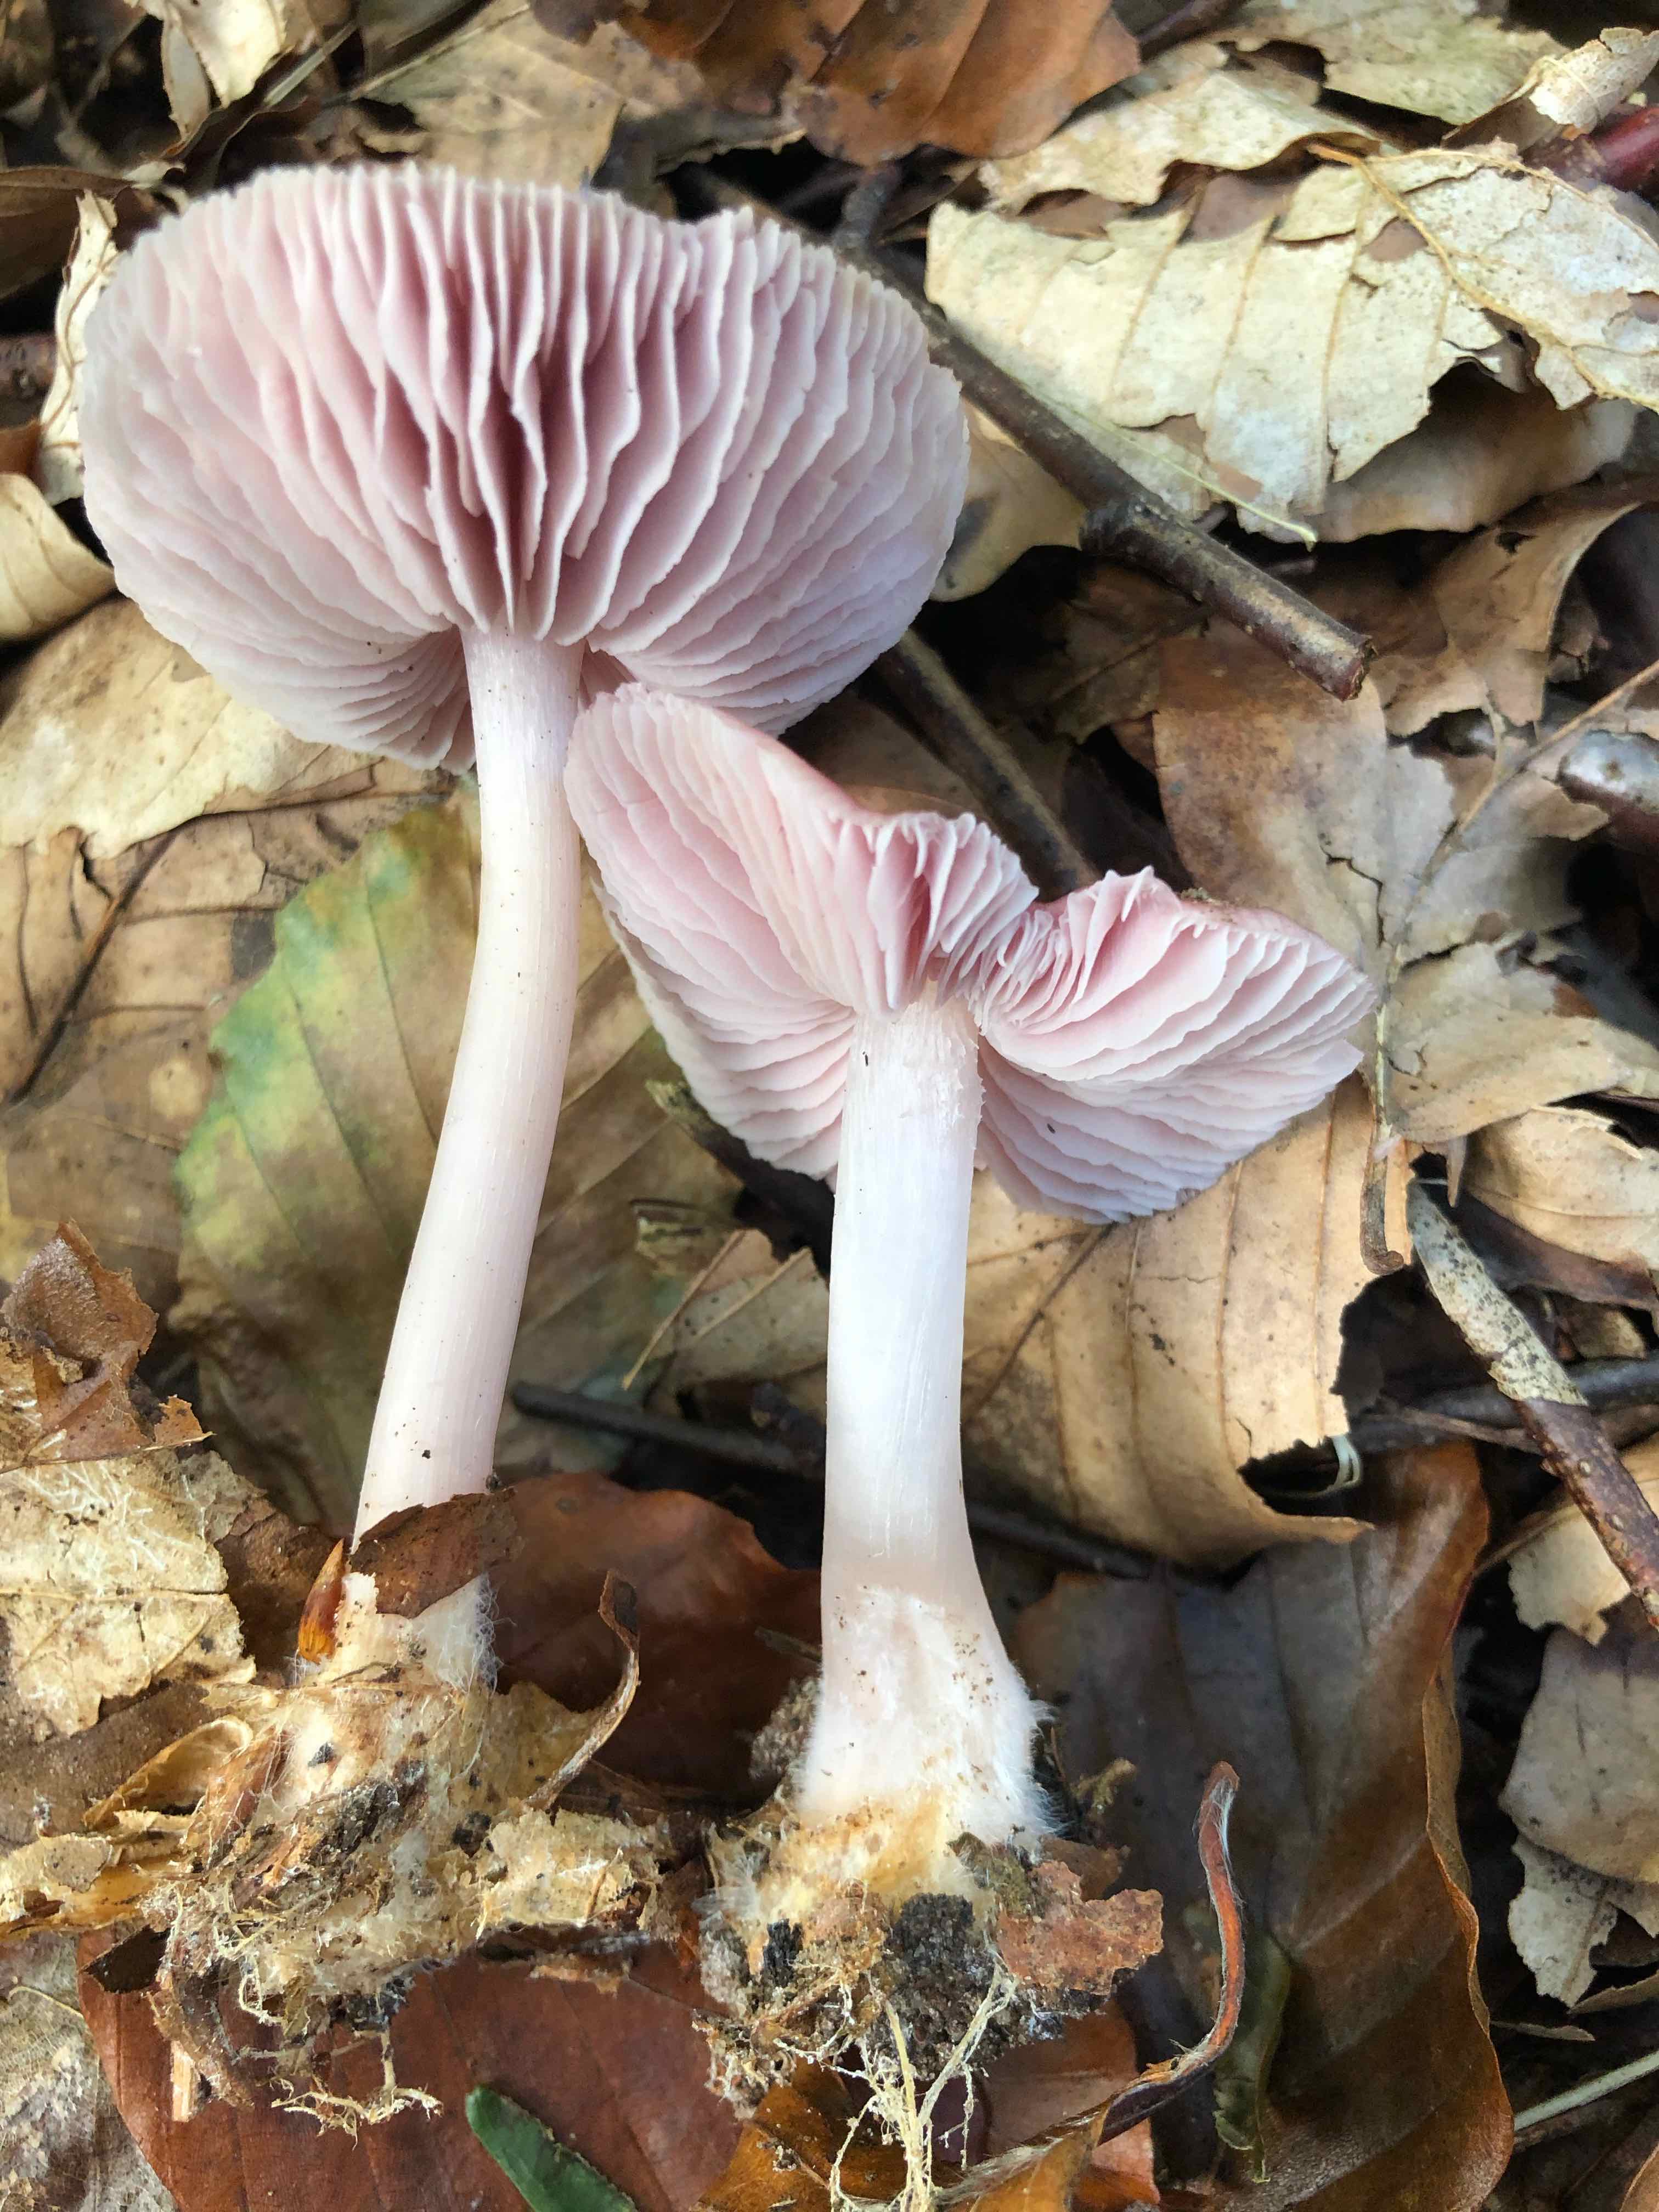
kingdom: Fungi
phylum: Basidiomycota
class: Agaricomycetes
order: Agaricales
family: Mycenaceae
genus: Mycena
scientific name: Mycena rosea
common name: rosa huesvamp
